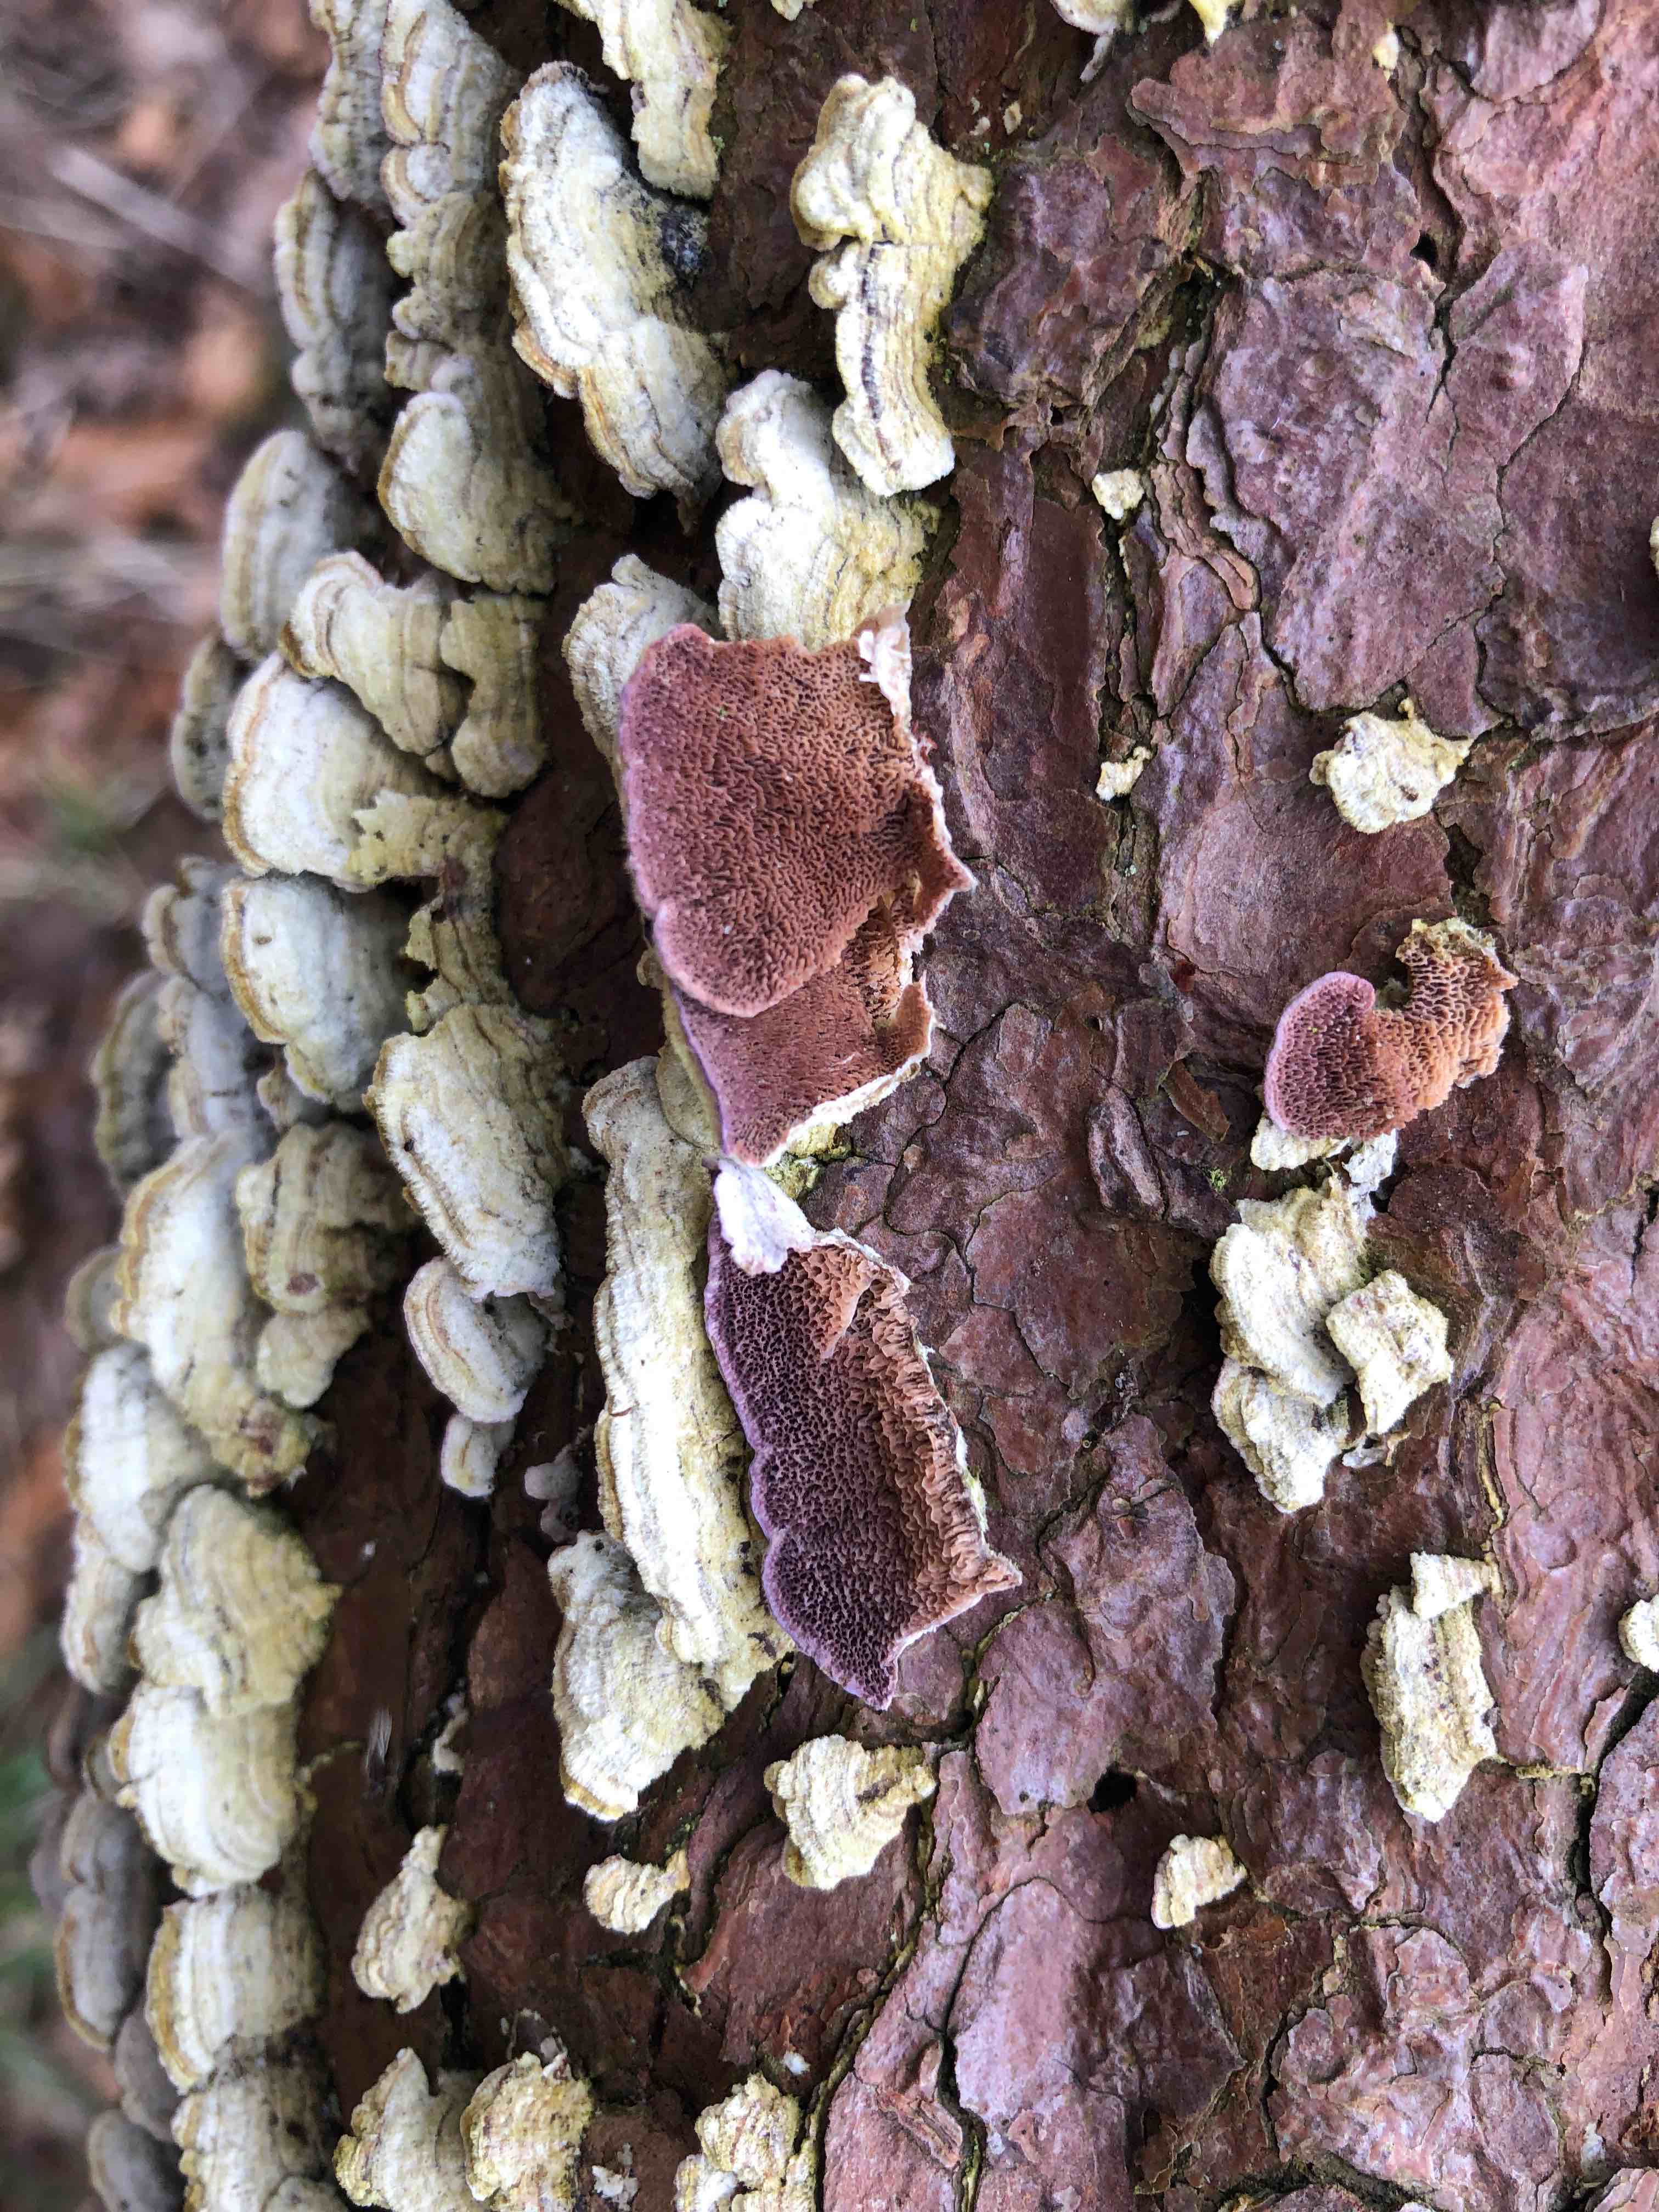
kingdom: Fungi
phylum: Basidiomycota
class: Agaricomycetes
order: Hymenochaetales
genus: Trichaptum
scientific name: Trichaptum abietinum
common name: almindelig violporesvamp
